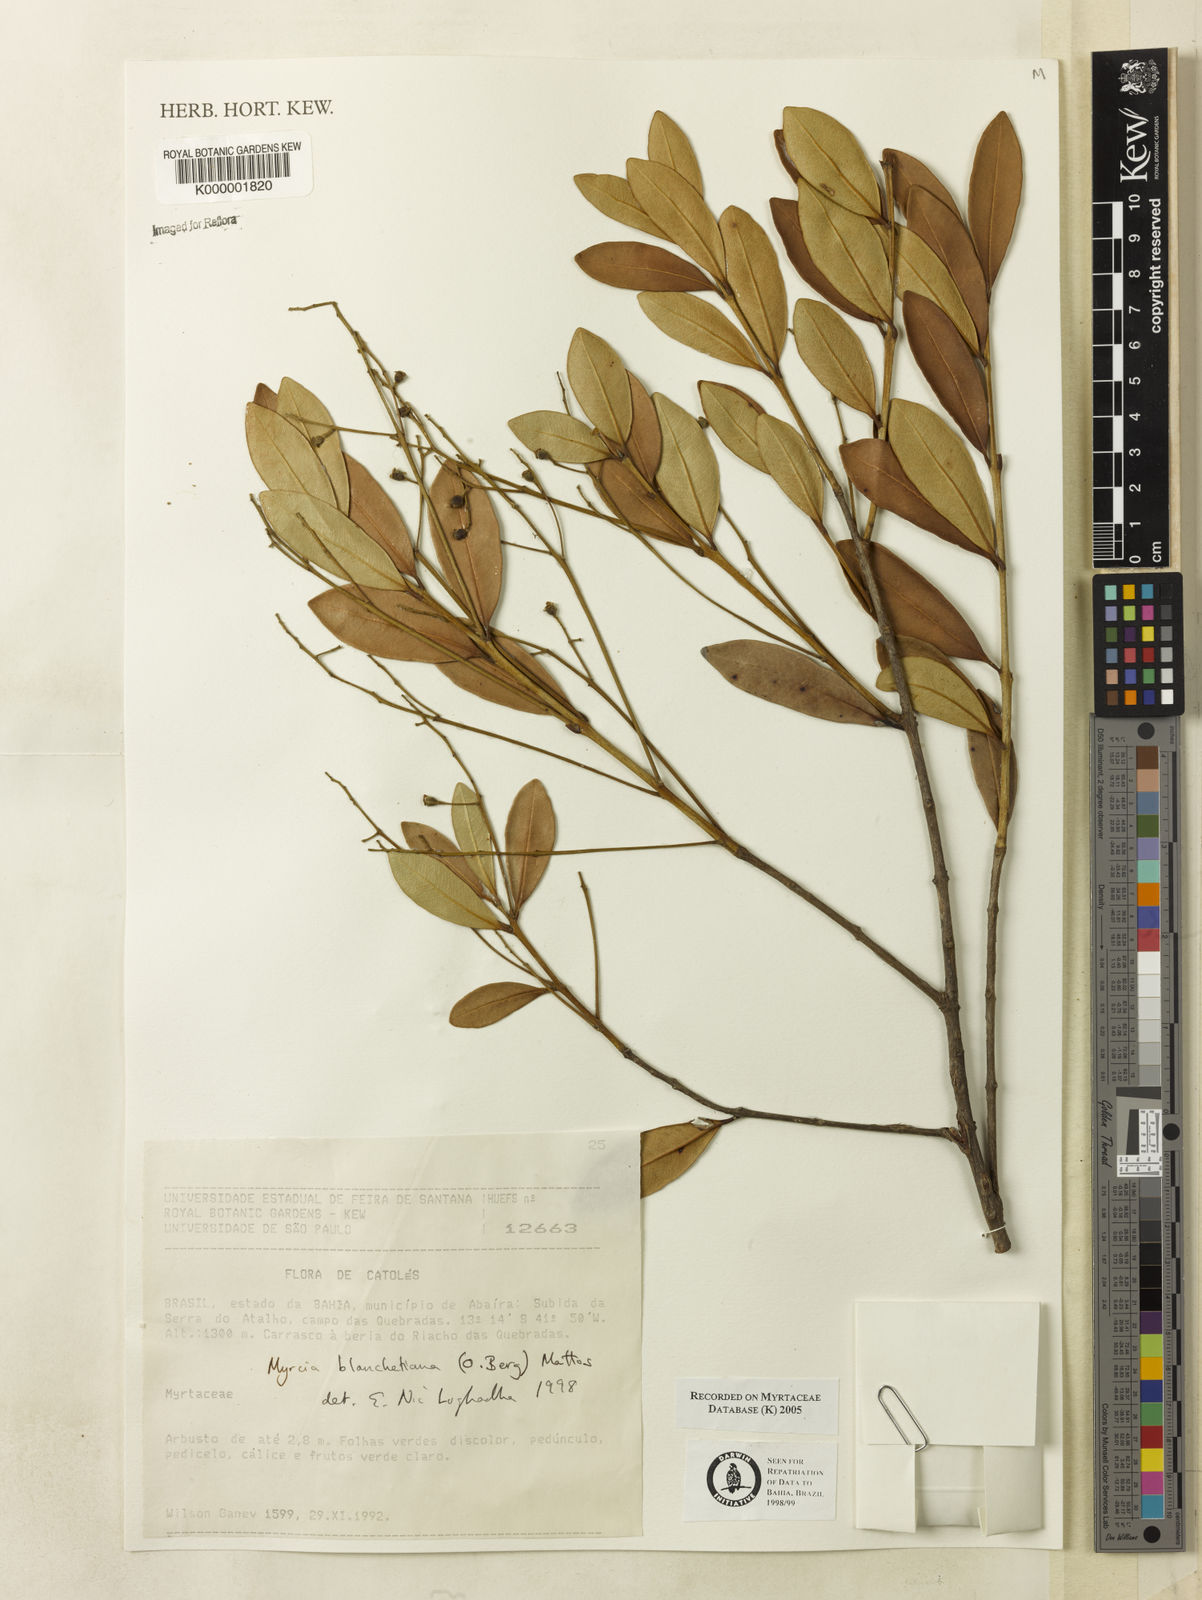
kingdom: Plantae
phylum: Tracheophyta
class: Magnoliopsida
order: Myrtales
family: Myrtaceae
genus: Myrcia
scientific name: Myrcia blanchetiana
